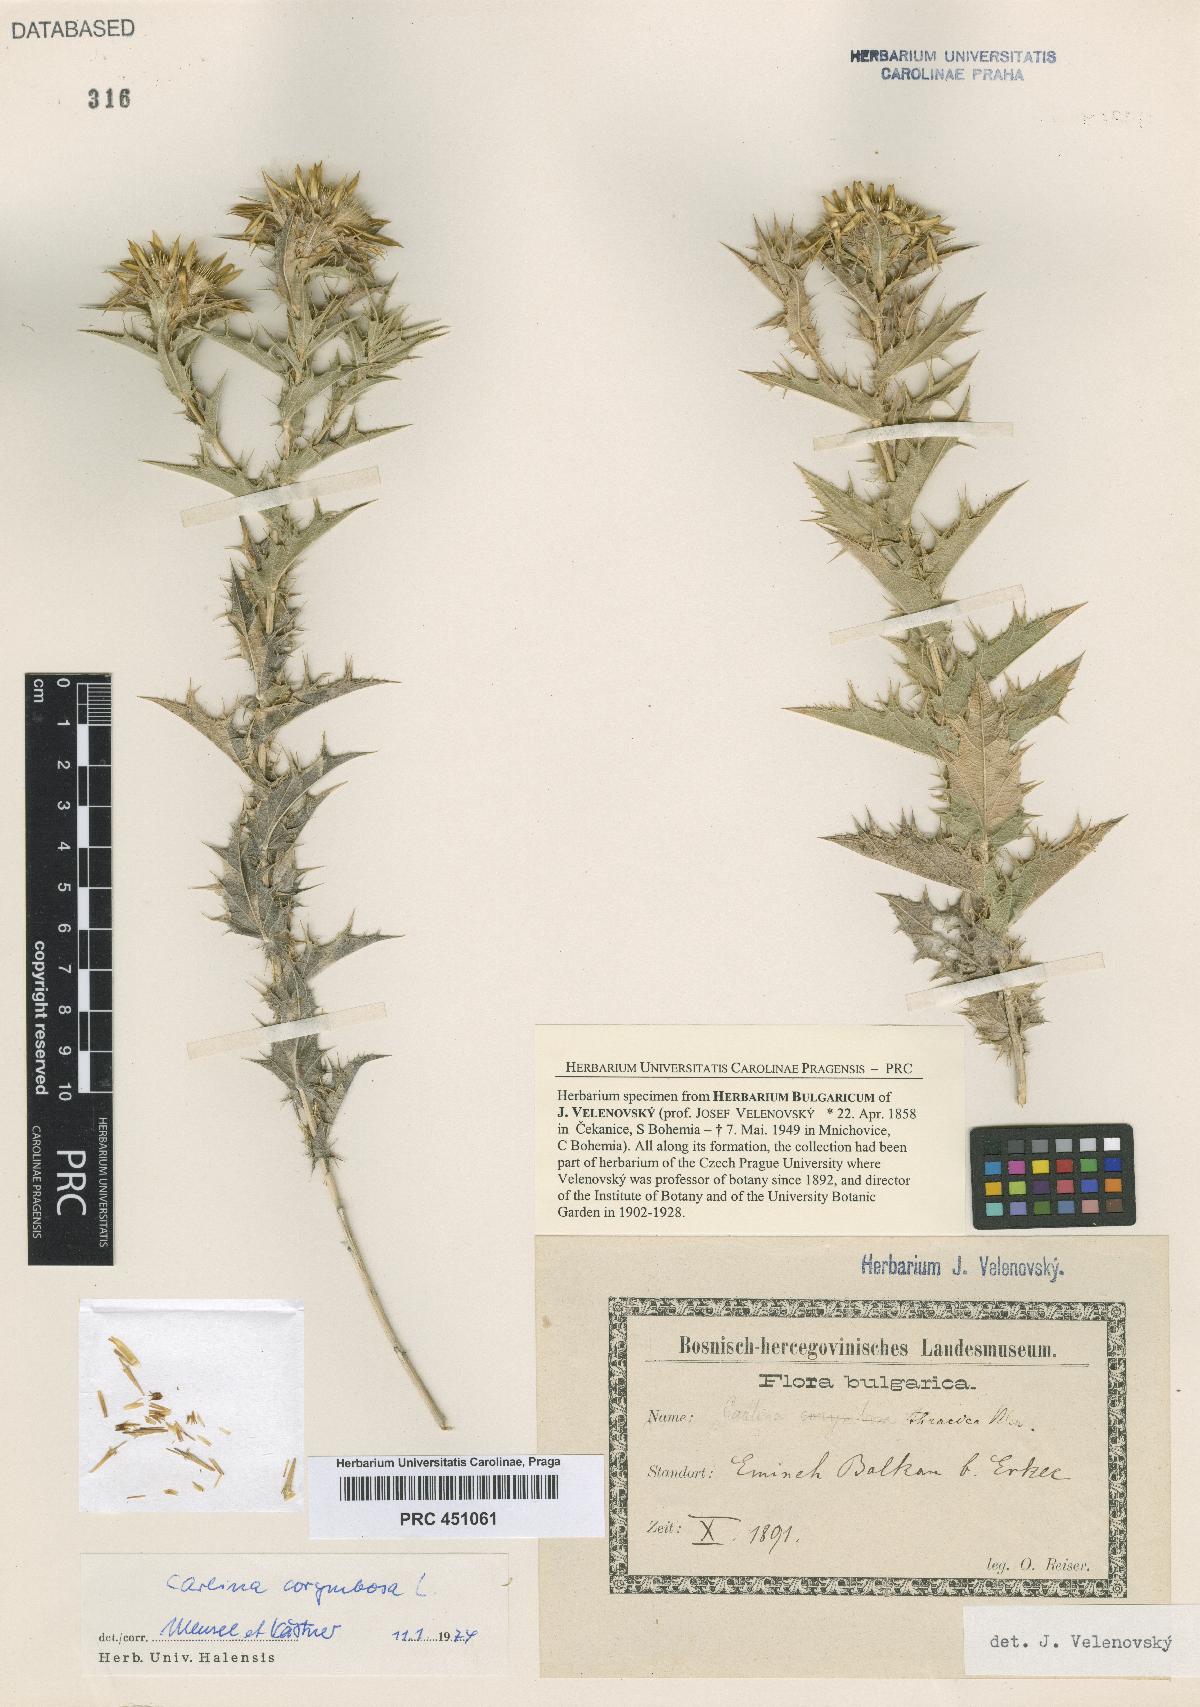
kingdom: Plantae
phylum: Tracheophyta
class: Magnoliopsida
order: Asterales
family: Asteraceae
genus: Carlina
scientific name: Carlina corymbosa
